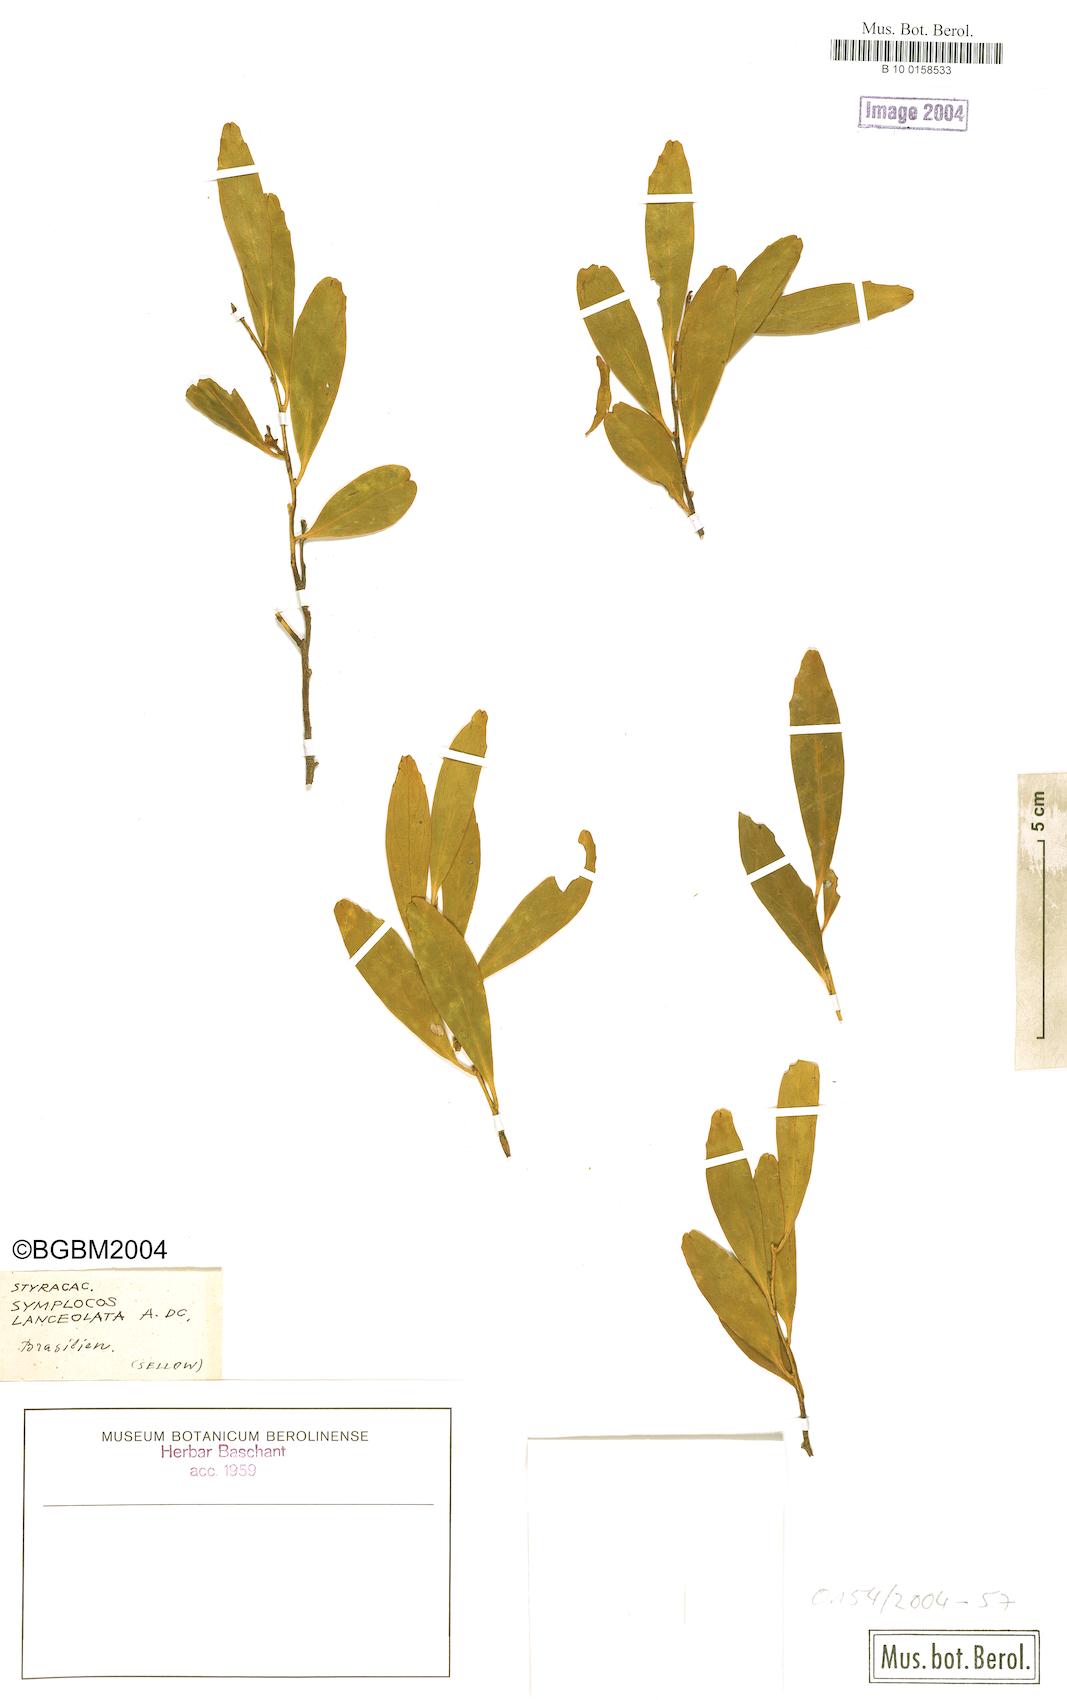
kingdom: Plantae
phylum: Tracheophyta
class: Magnoliopsida
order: Ericales
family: Symplocaceae
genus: Symplocos
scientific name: Symplocos oblongifolia
